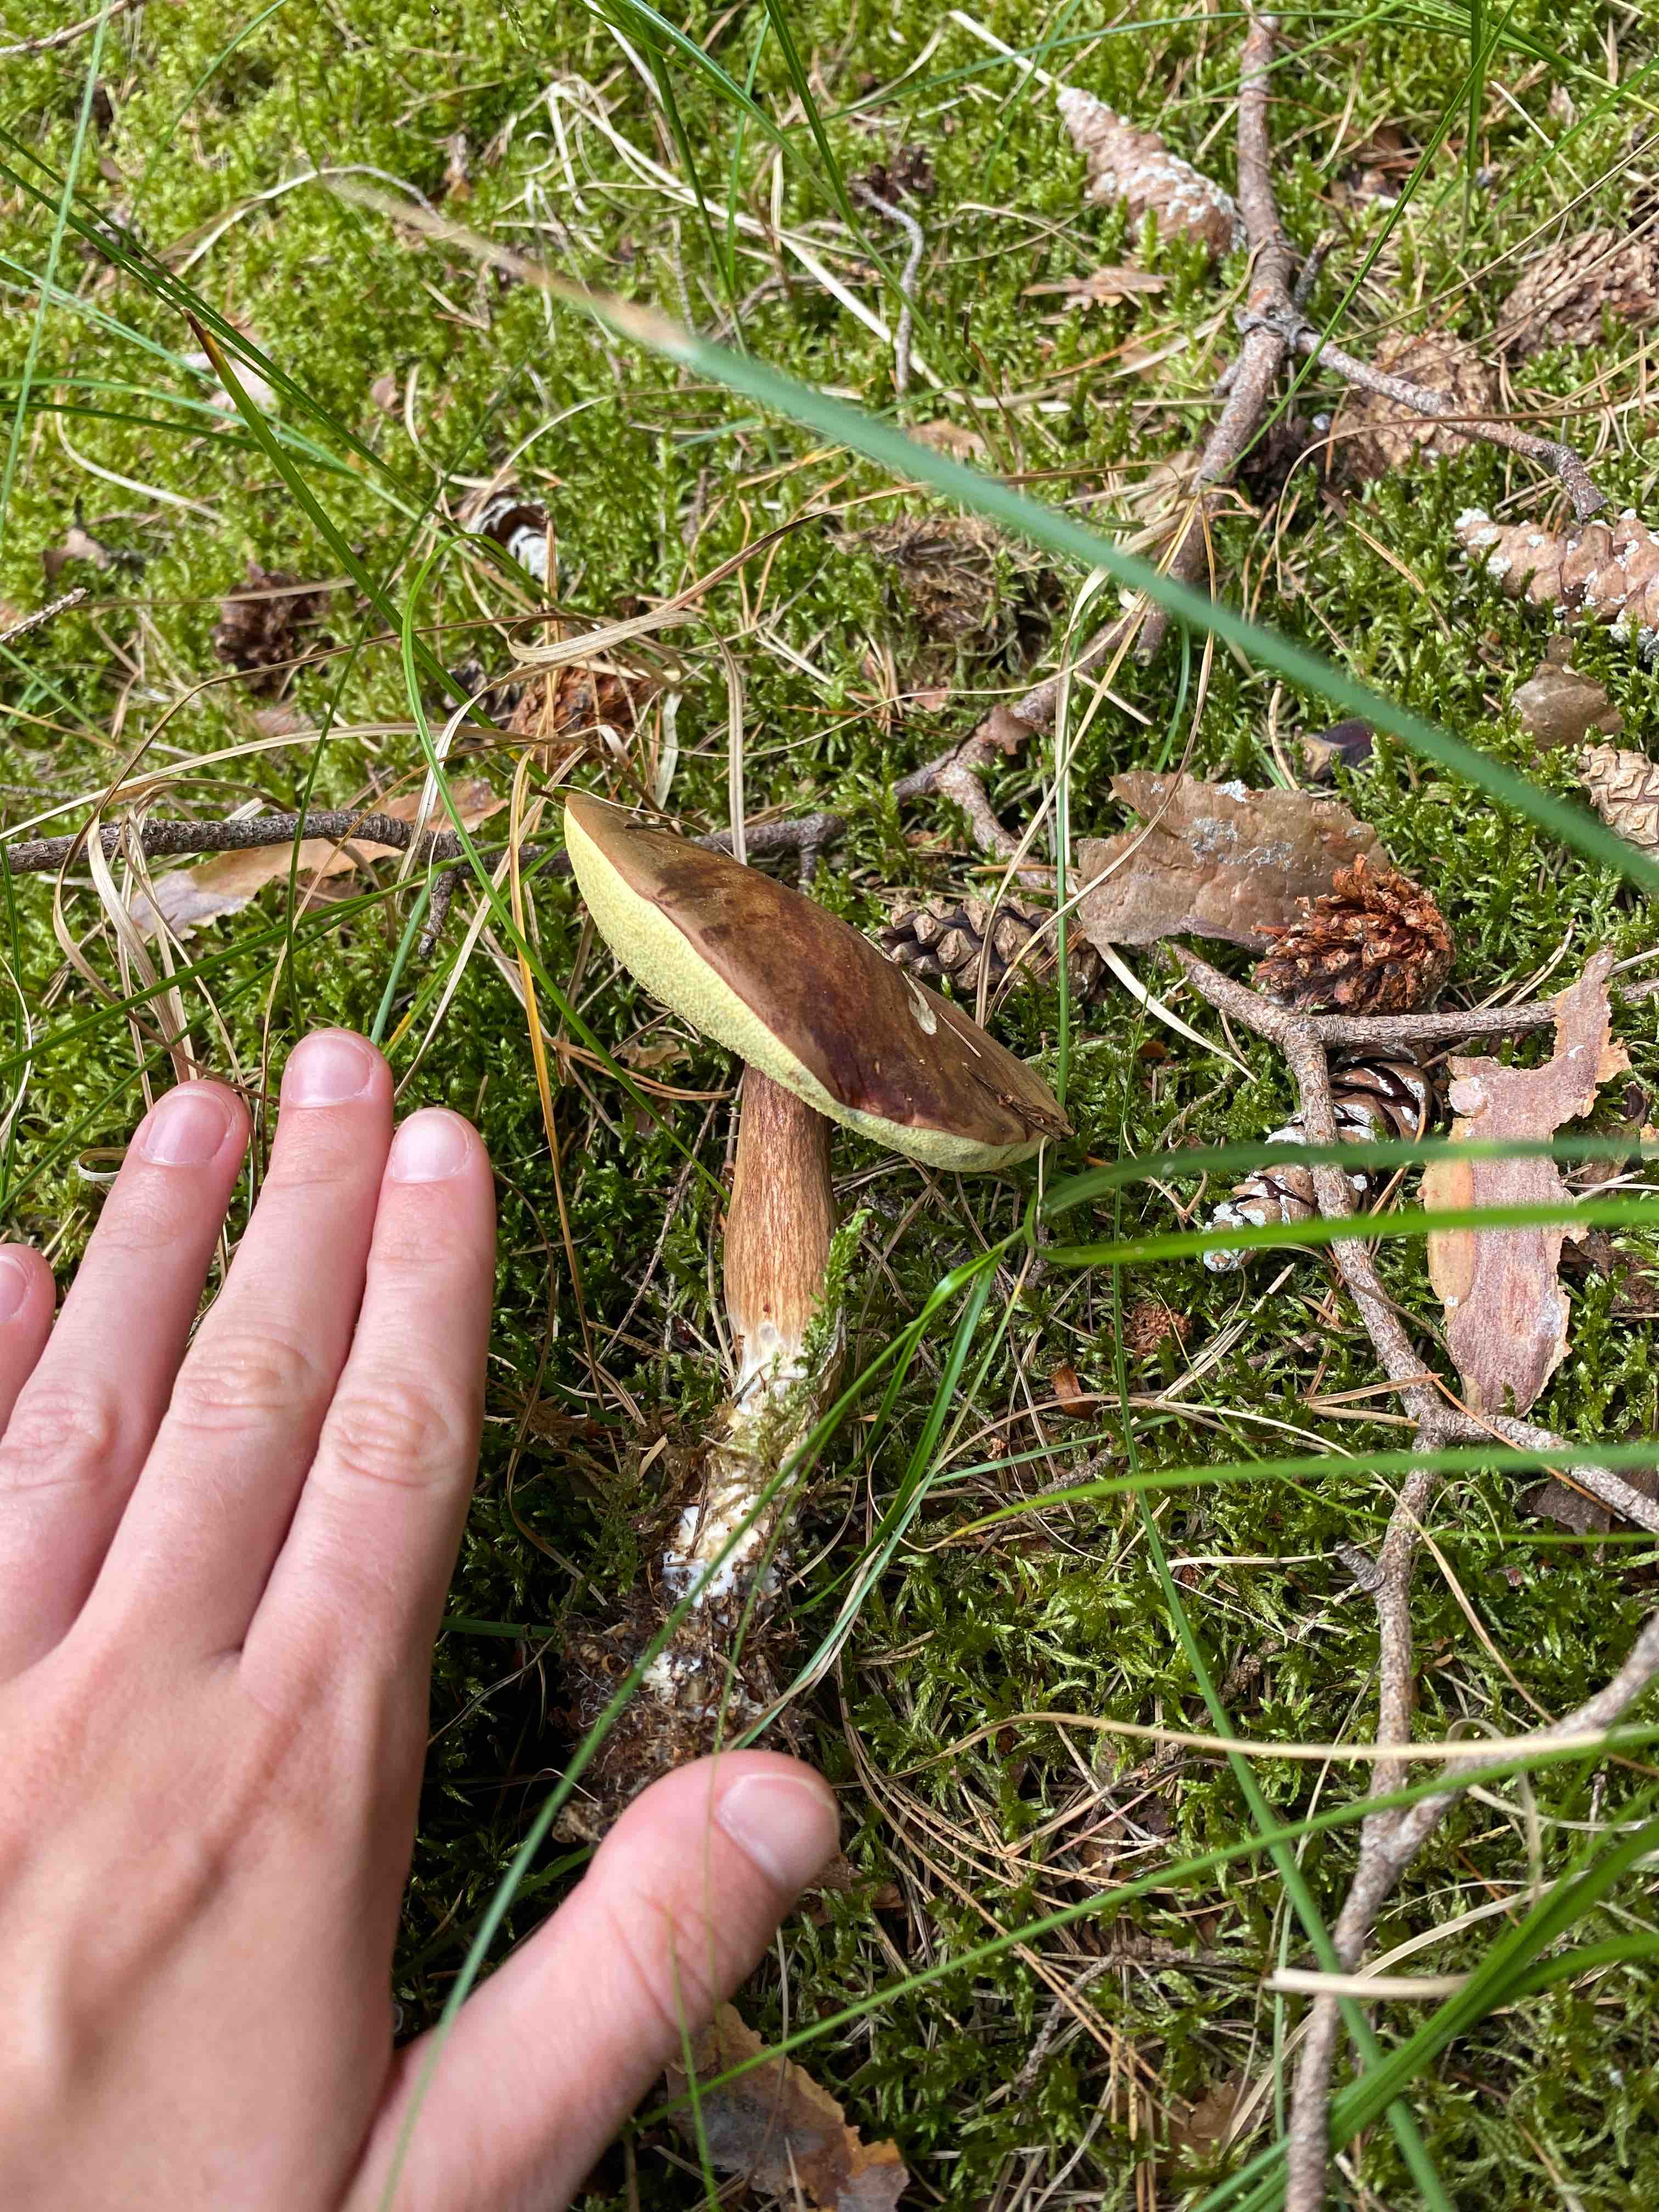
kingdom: Fungi
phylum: Basidiomycota
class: Agaricomycetes
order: Boletales
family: Boletaceae
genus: Imleria
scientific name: Imleria badia
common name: brunstokket rørhat
